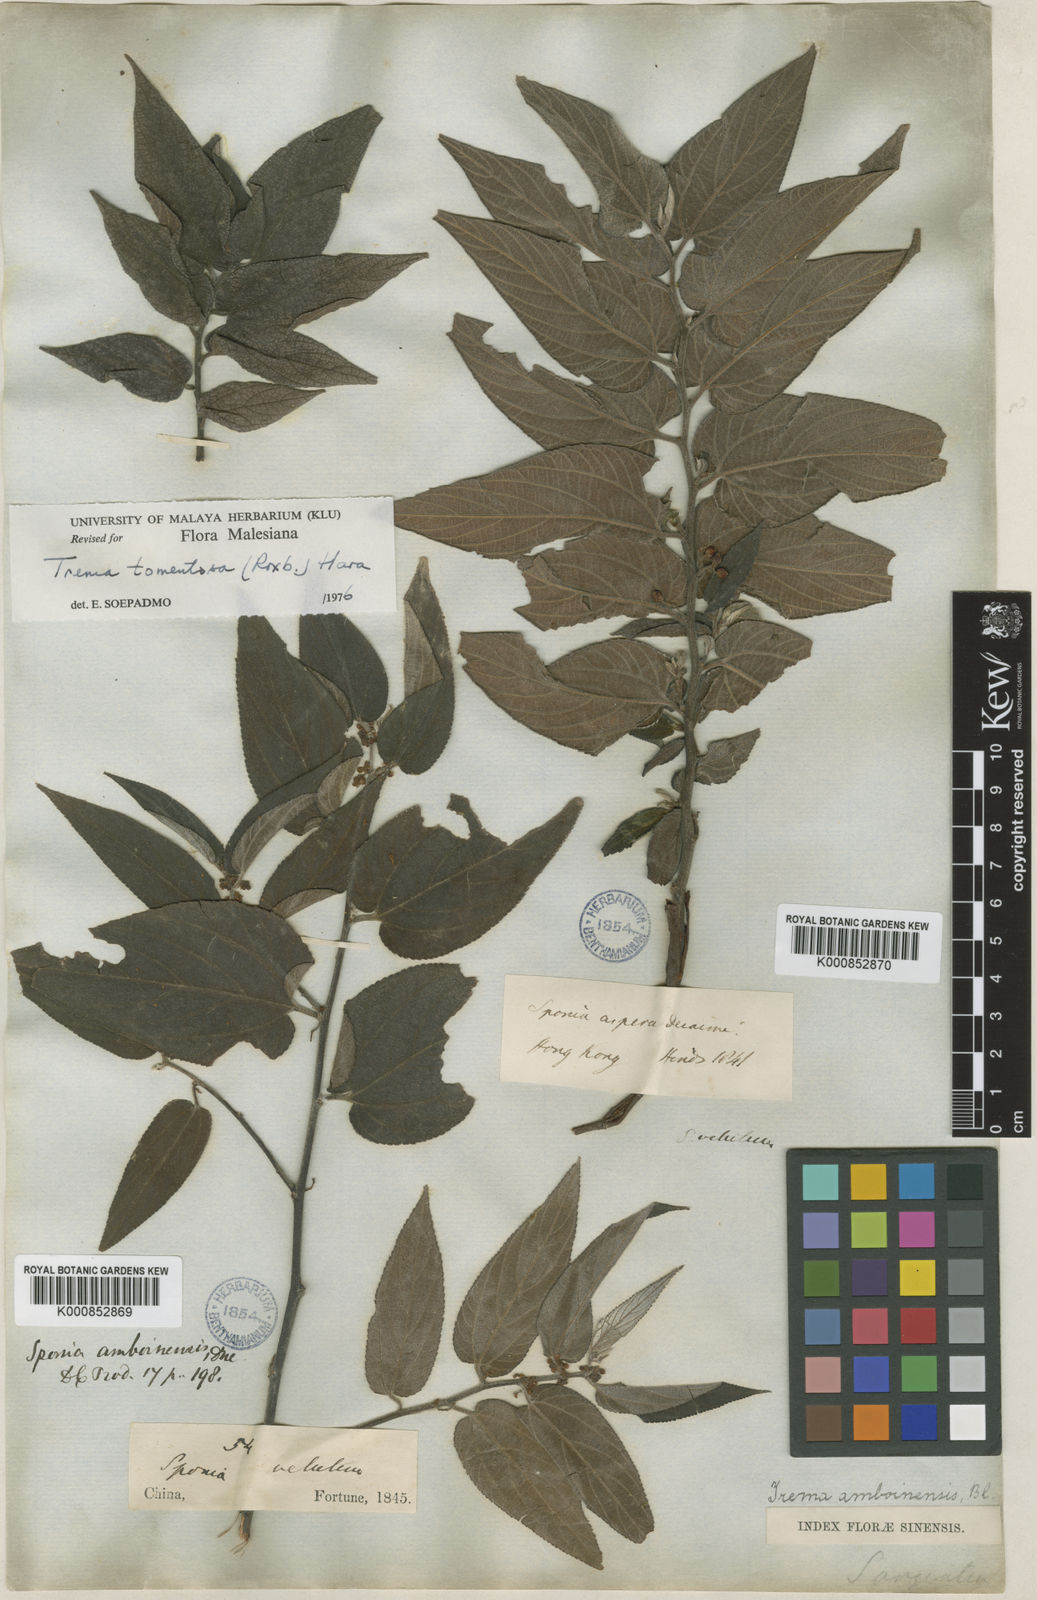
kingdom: Plantae
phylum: Tracheophyta
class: Magnoliopsida
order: Rosales
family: Cannabaceae
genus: Trema
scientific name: Trema tomentosum
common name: Peach-leaf-poisonbush
